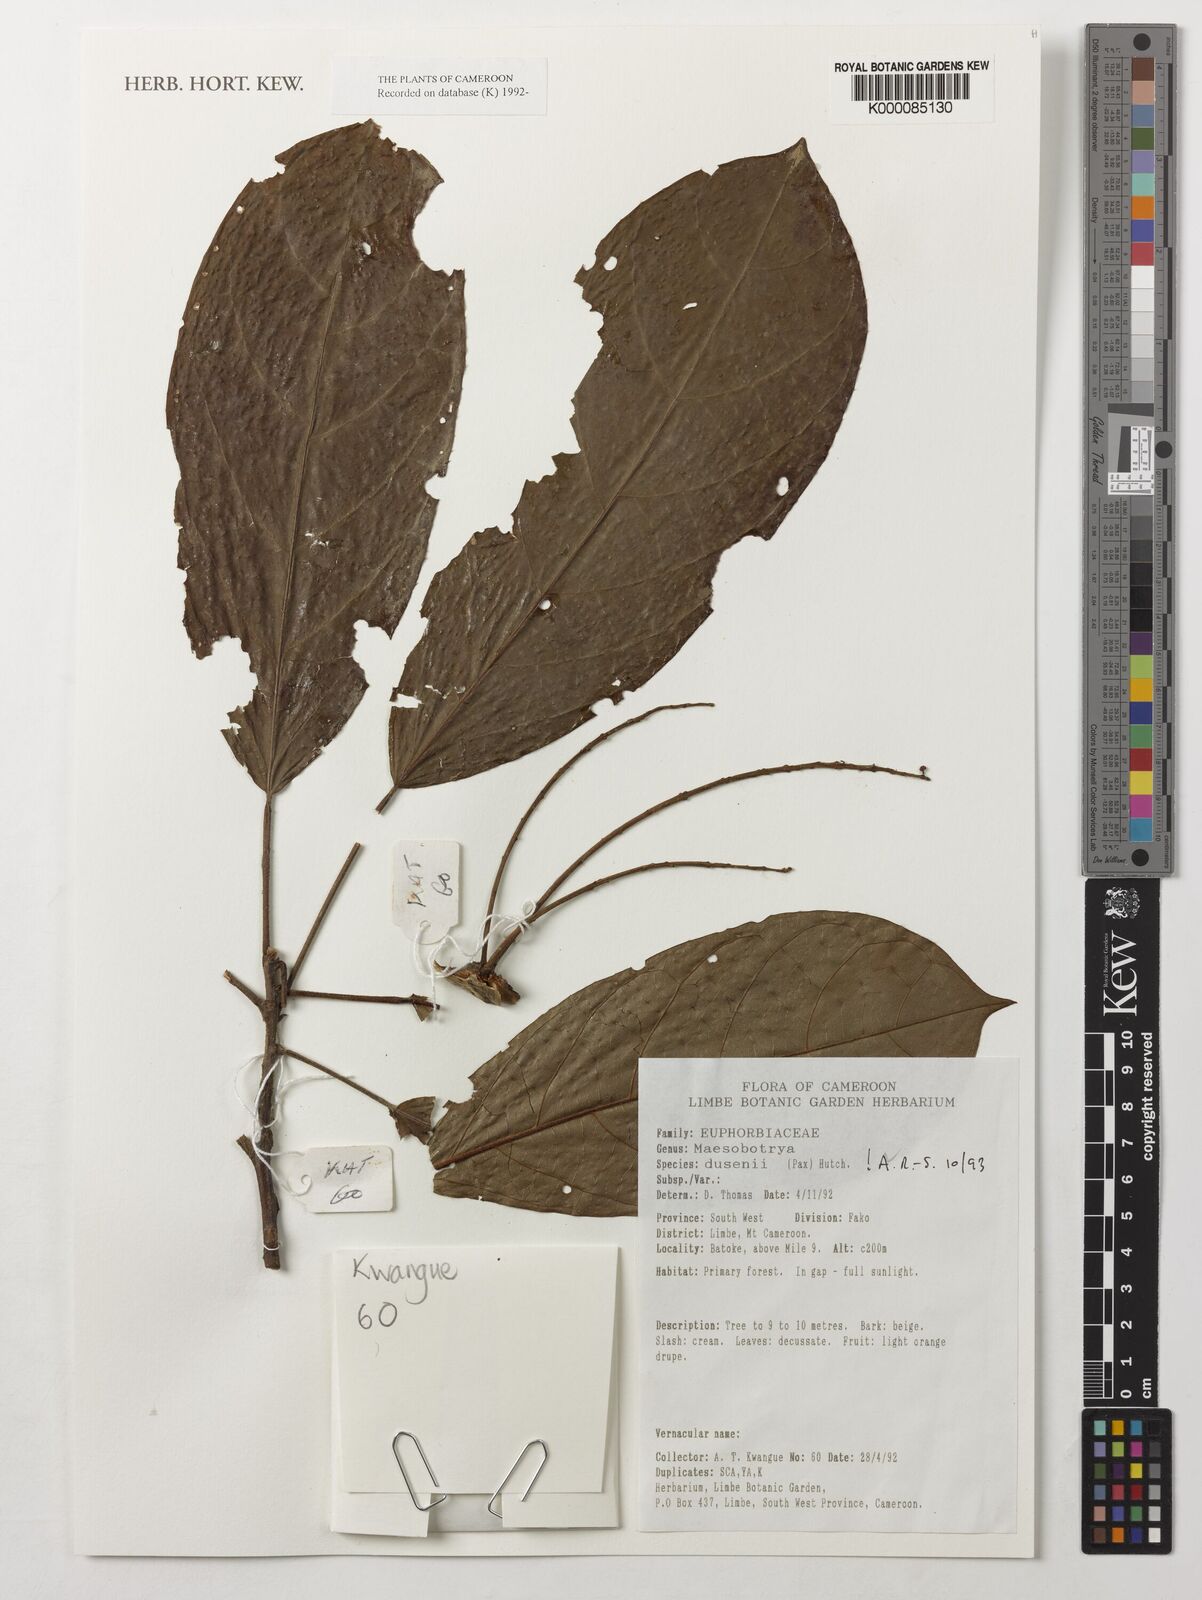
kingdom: Plantae
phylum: Tracheophyta
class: Magnoliopsida
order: Malpighiales
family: Phyllanthaceae
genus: Maesobotrya
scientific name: Maesobotrya
